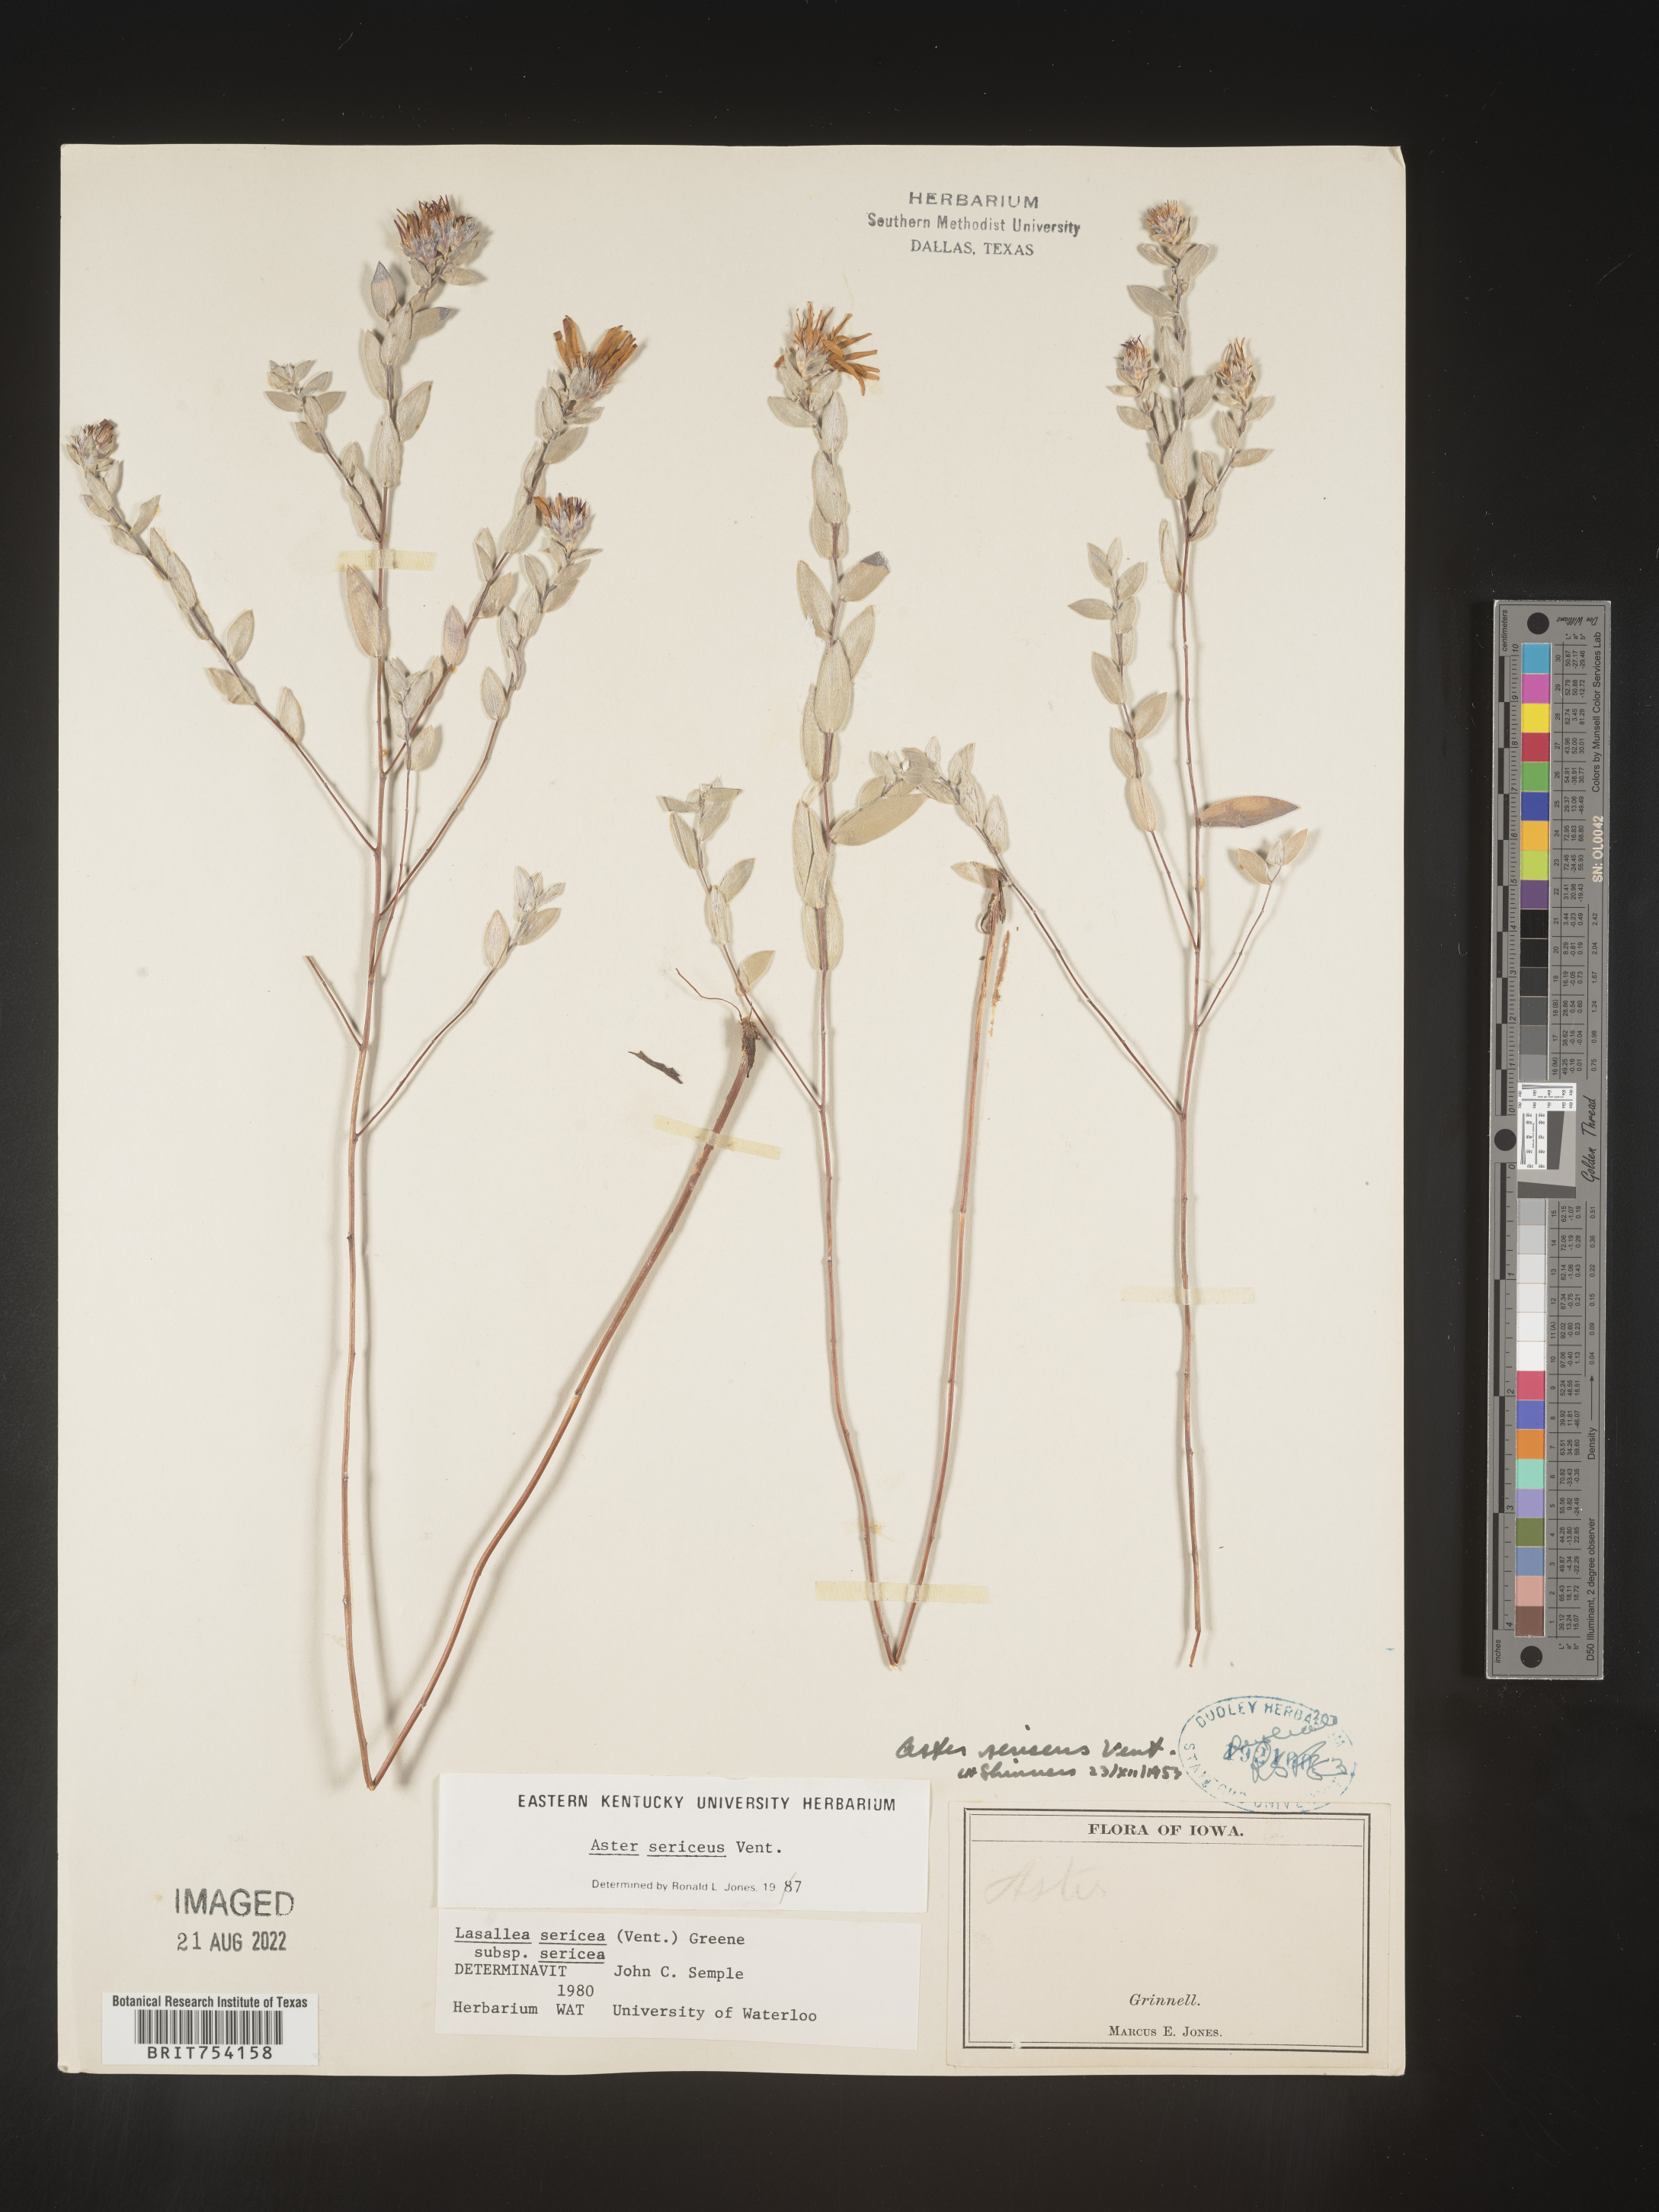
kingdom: Plantae
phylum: Tracheophyta
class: Magnoliopsida
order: Asterales
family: Asteraceae
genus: Symphyotrichum
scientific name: Symphyotrichum sericeum
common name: Silky aster
